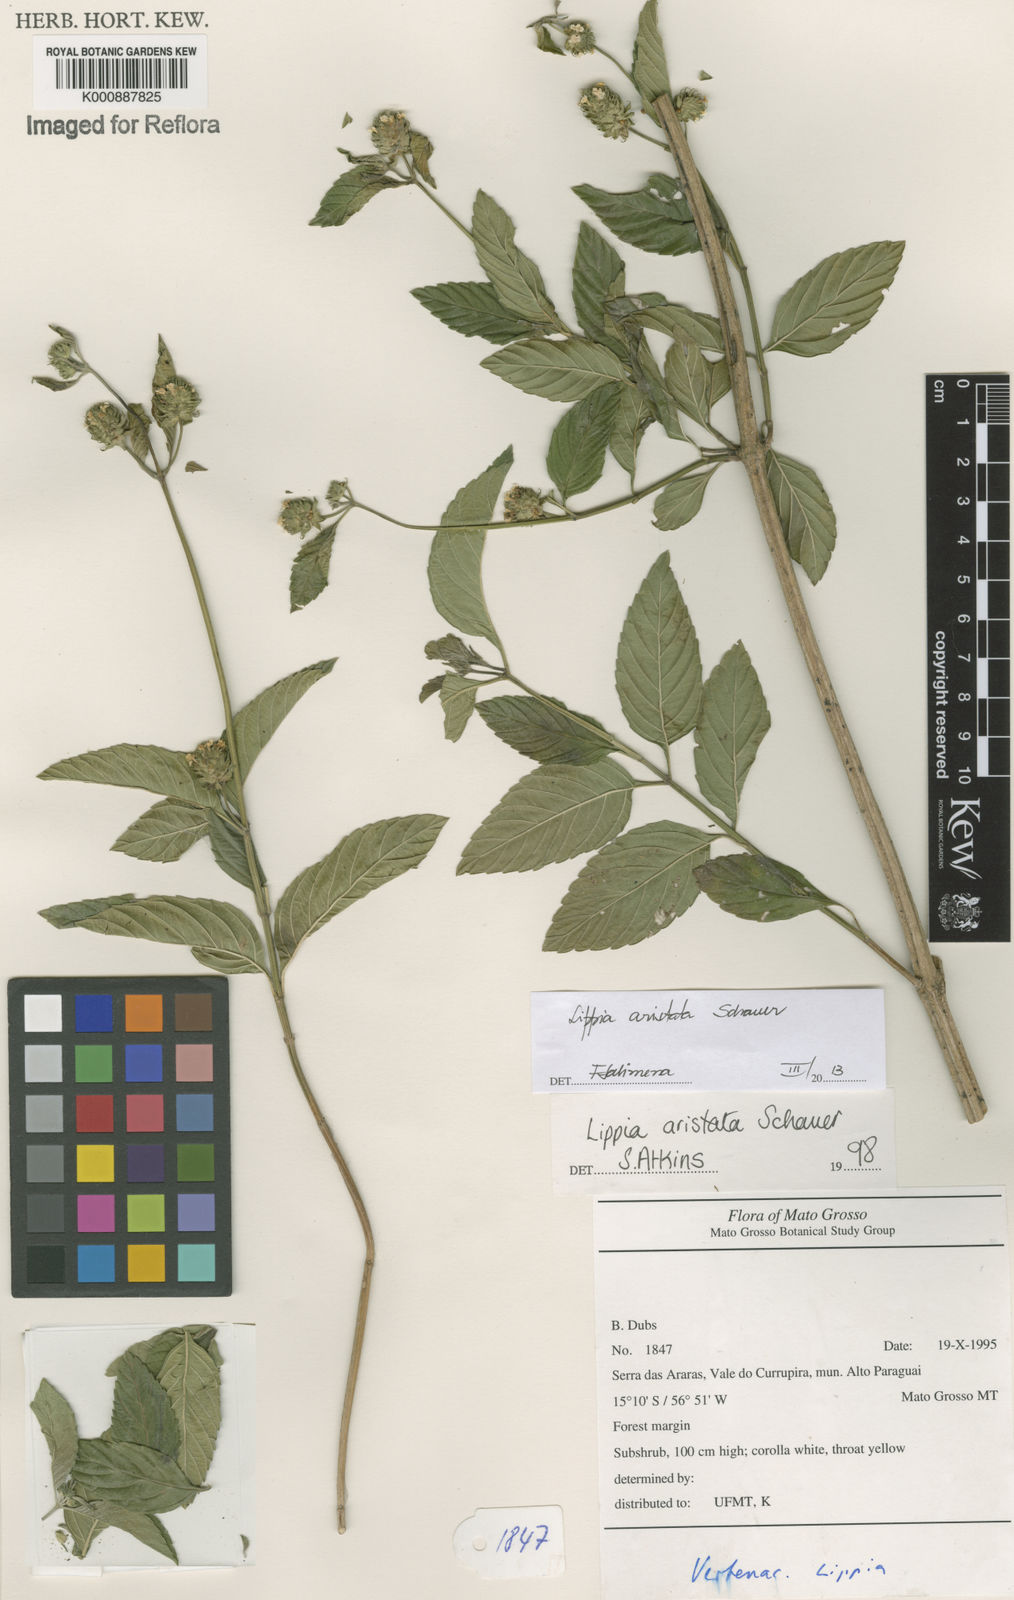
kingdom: Plantae
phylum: Tracheophyta
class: Magnoliopsida
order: Lamiales
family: Verbenaceae
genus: Lippia
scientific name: Lippia aristata
